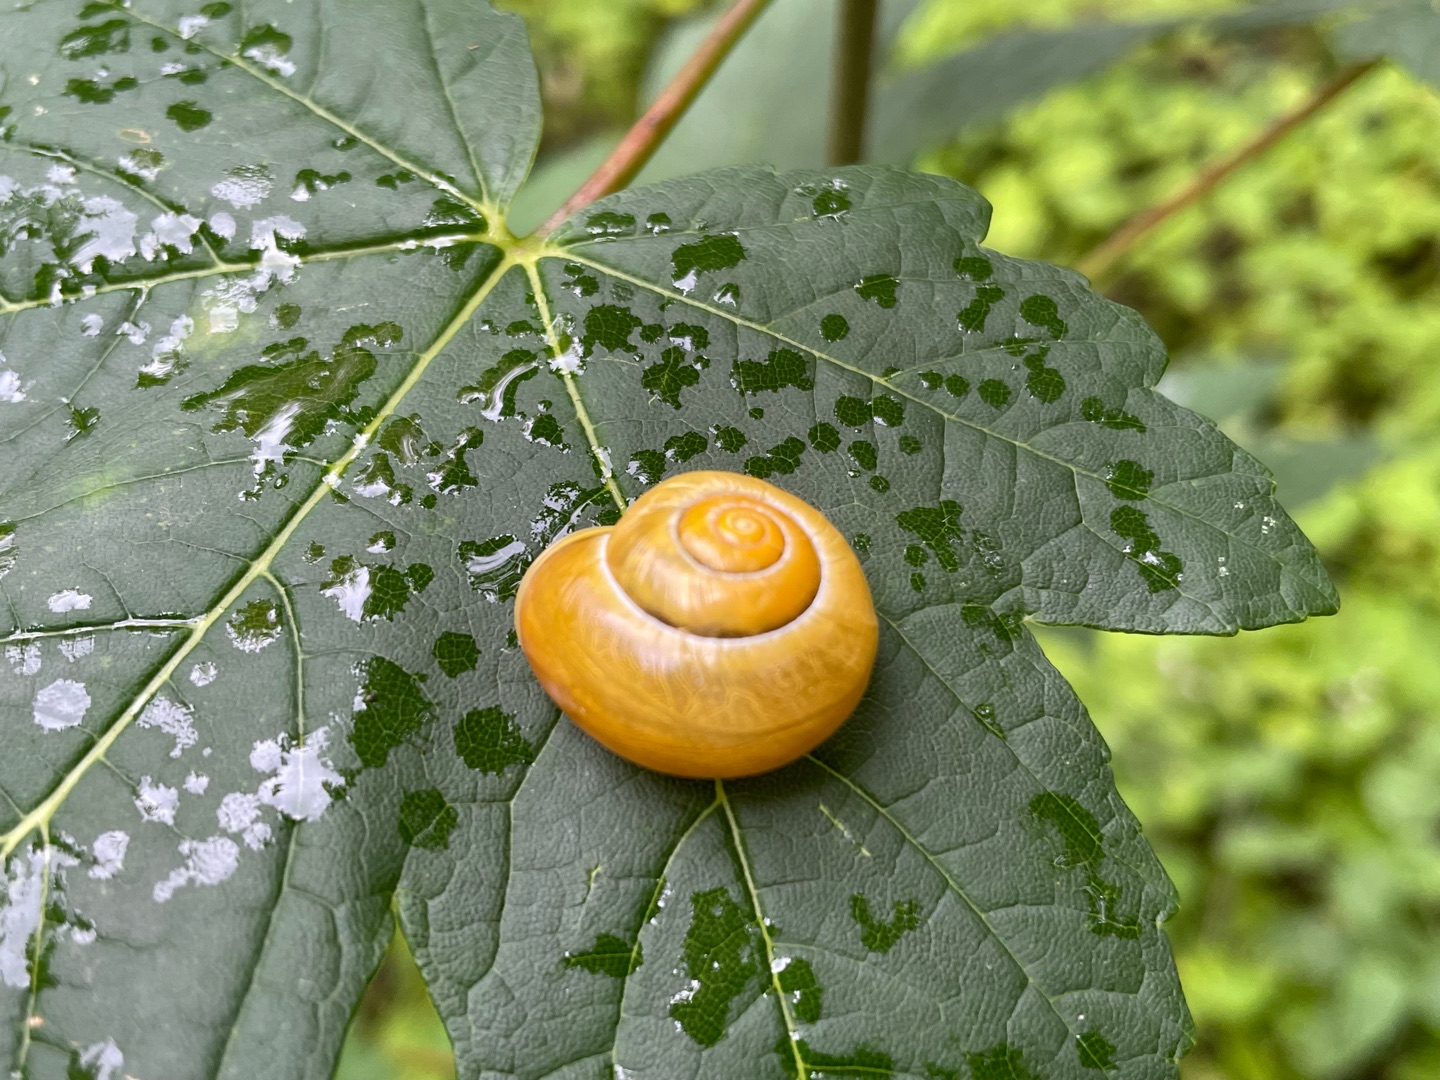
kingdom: Animalia
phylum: Mollusca
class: Gastropoda
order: Stylommatophora
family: Helicidae
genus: Cepaea
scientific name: Cepaea hortensis
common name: Havesnegl
